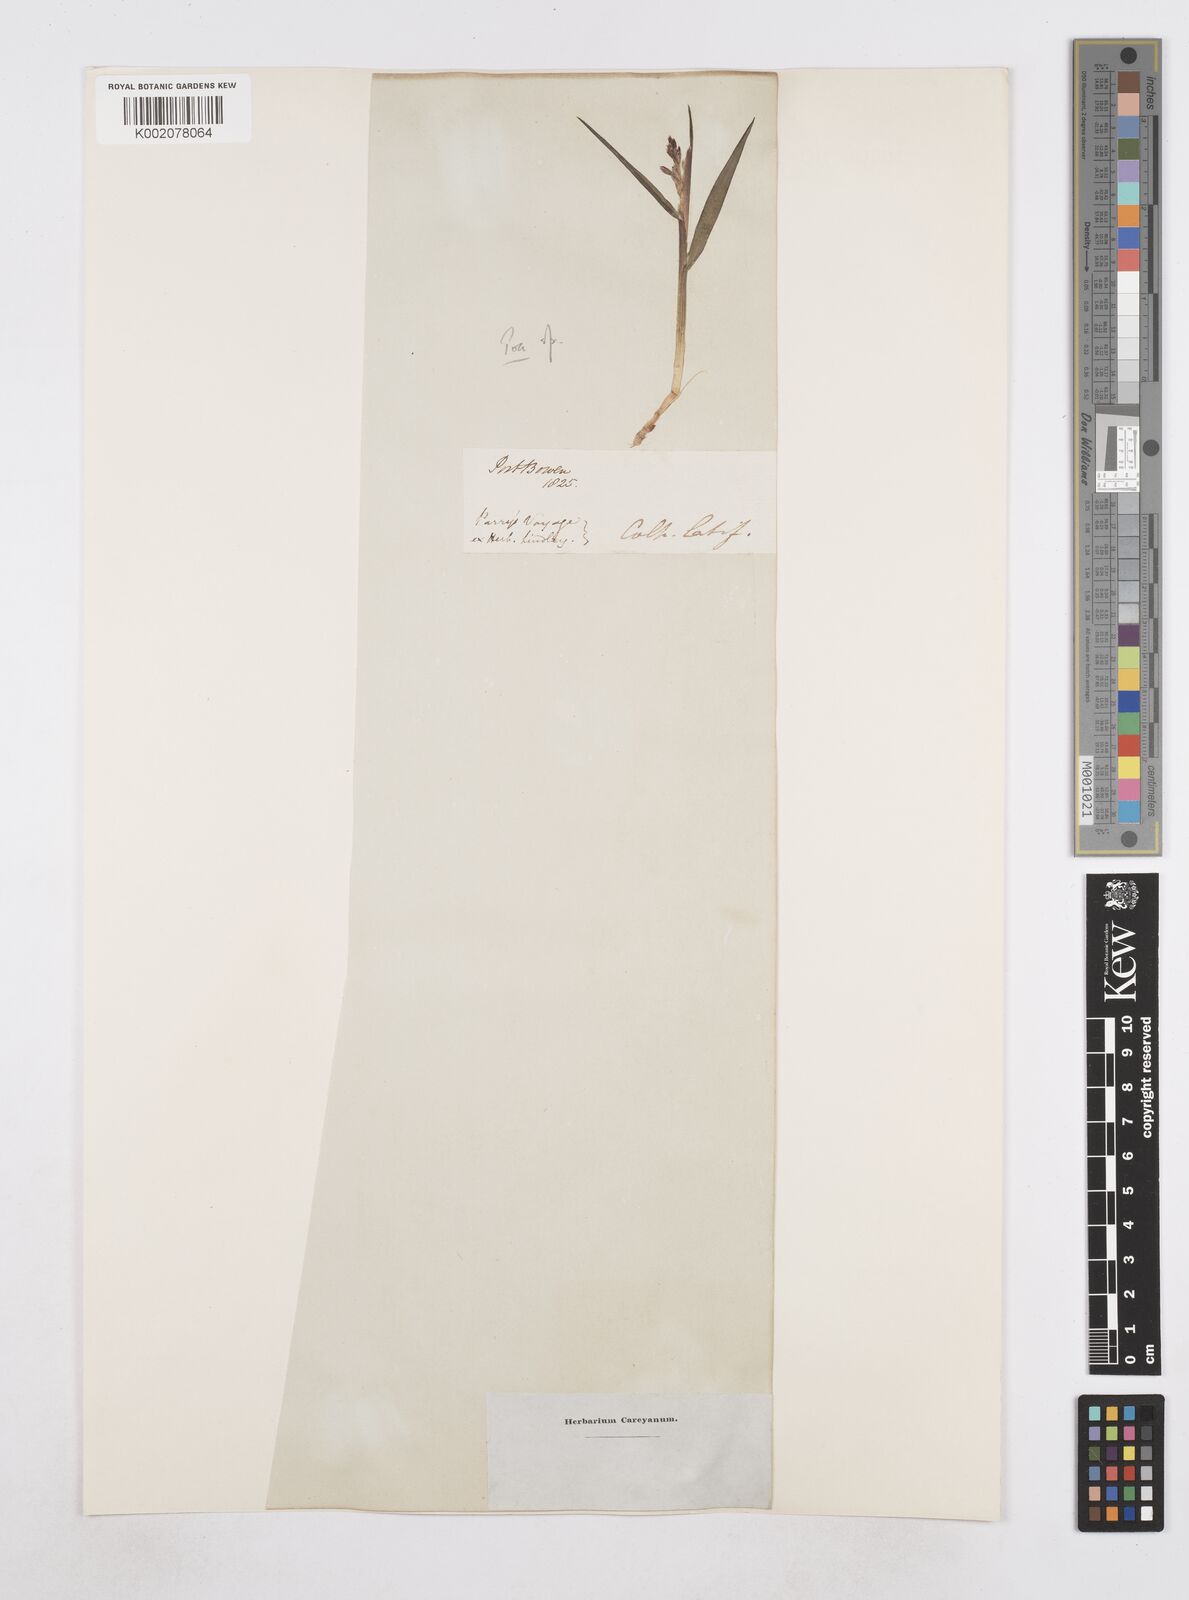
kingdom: Plantae
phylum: Tracheophyta
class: Liliopsida
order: Poales
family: Poaceae
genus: Poa
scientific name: Poa
